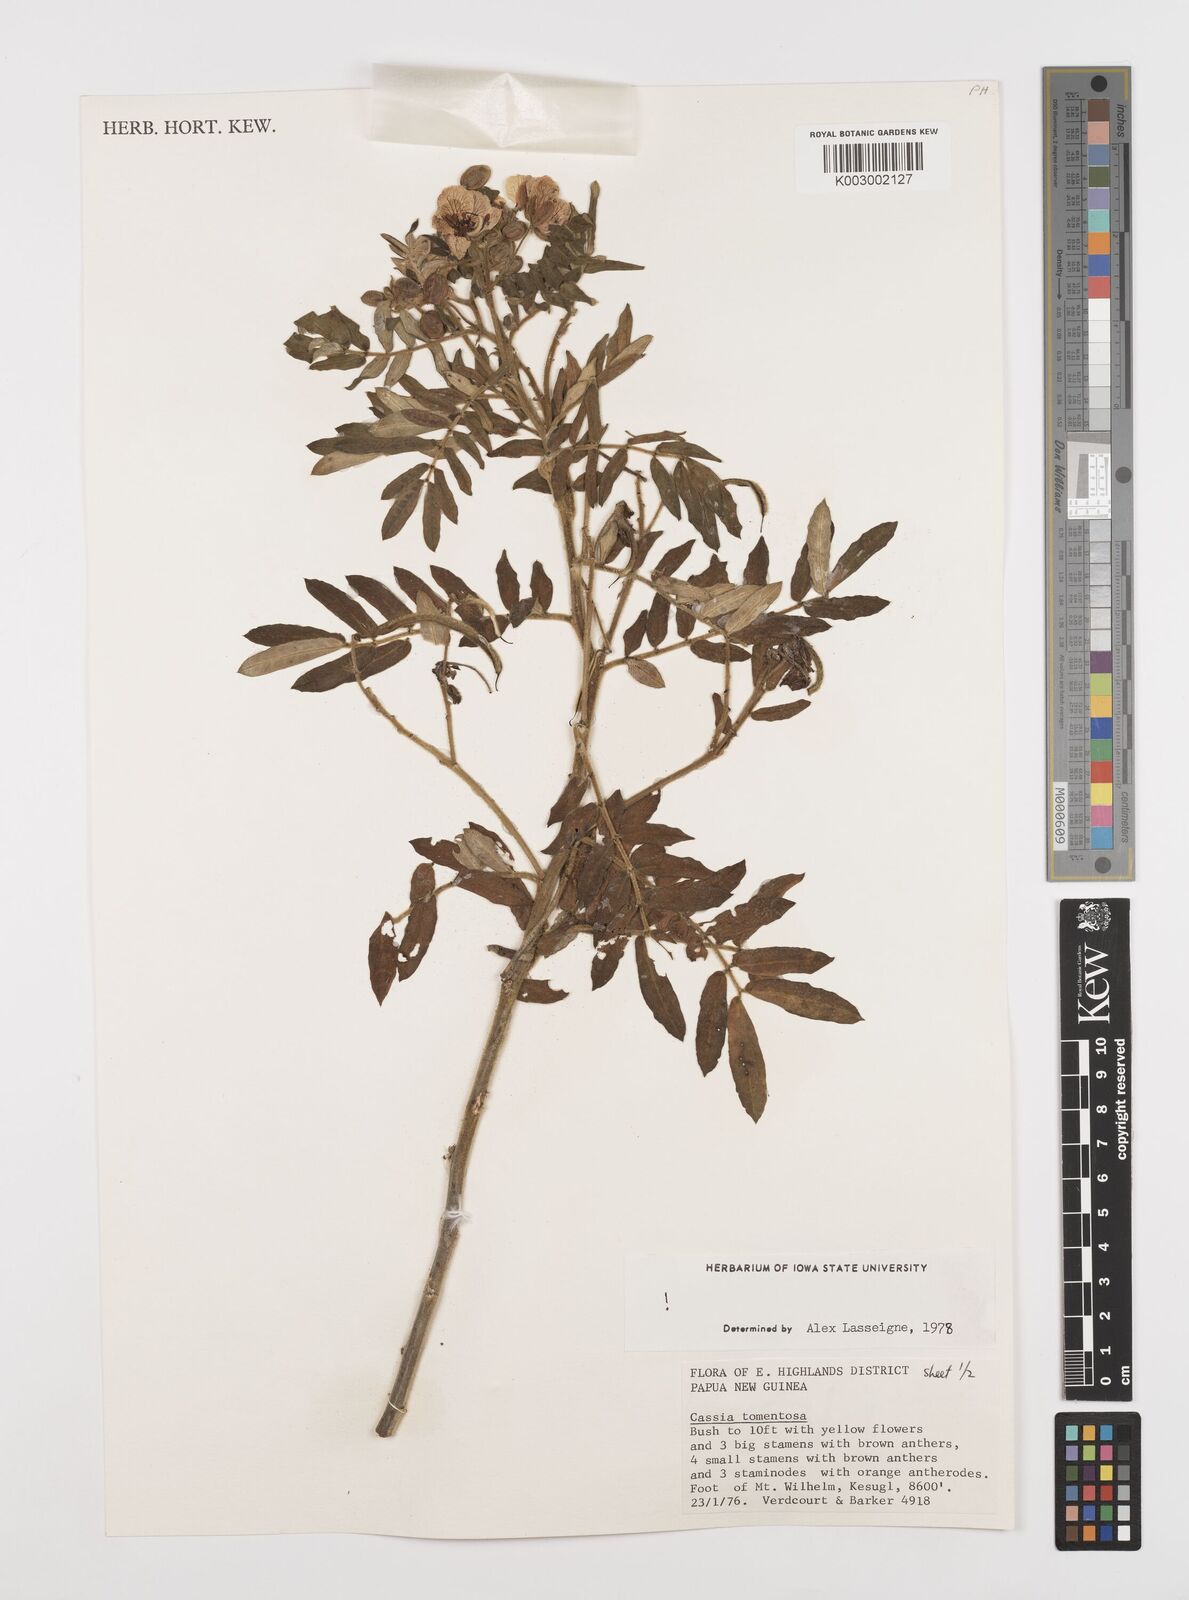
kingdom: Plantae
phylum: Tracheophyta
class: Magnoliopsida
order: Fabales
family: Fabaceae
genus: Senna
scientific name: Senna multiglandulosa
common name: Glandular senna
